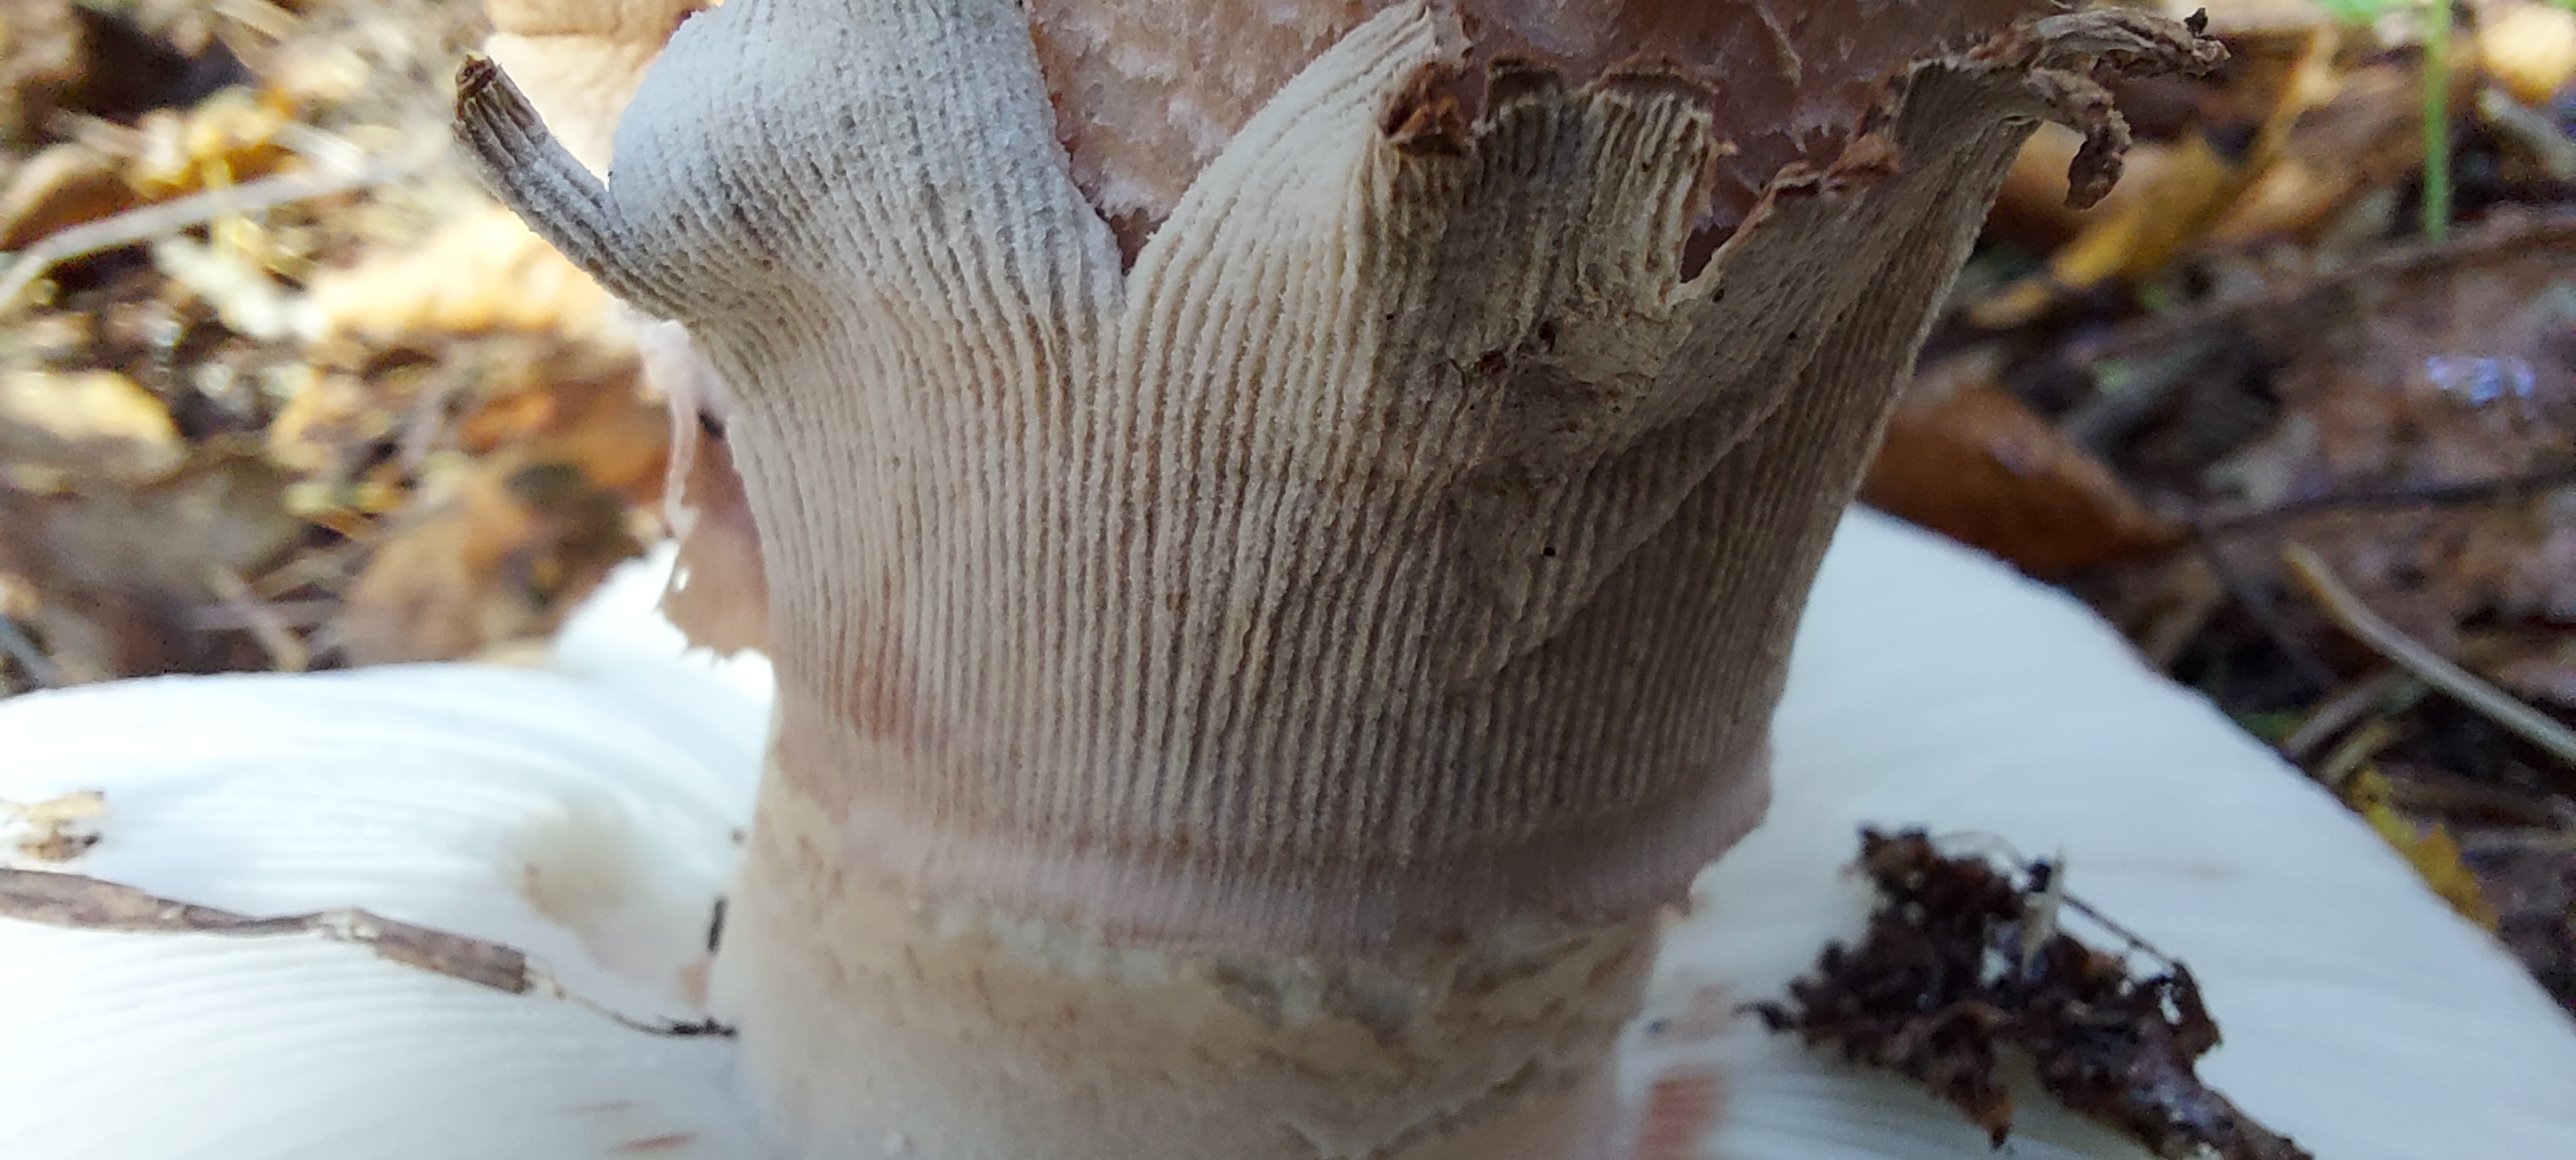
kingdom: Fungi
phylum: Basidiomycota
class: Agaricomycetes
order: Agaricales
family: Amanitaceae
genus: Amanita
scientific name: Amanita rubescens
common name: rødmende fluesvamp
